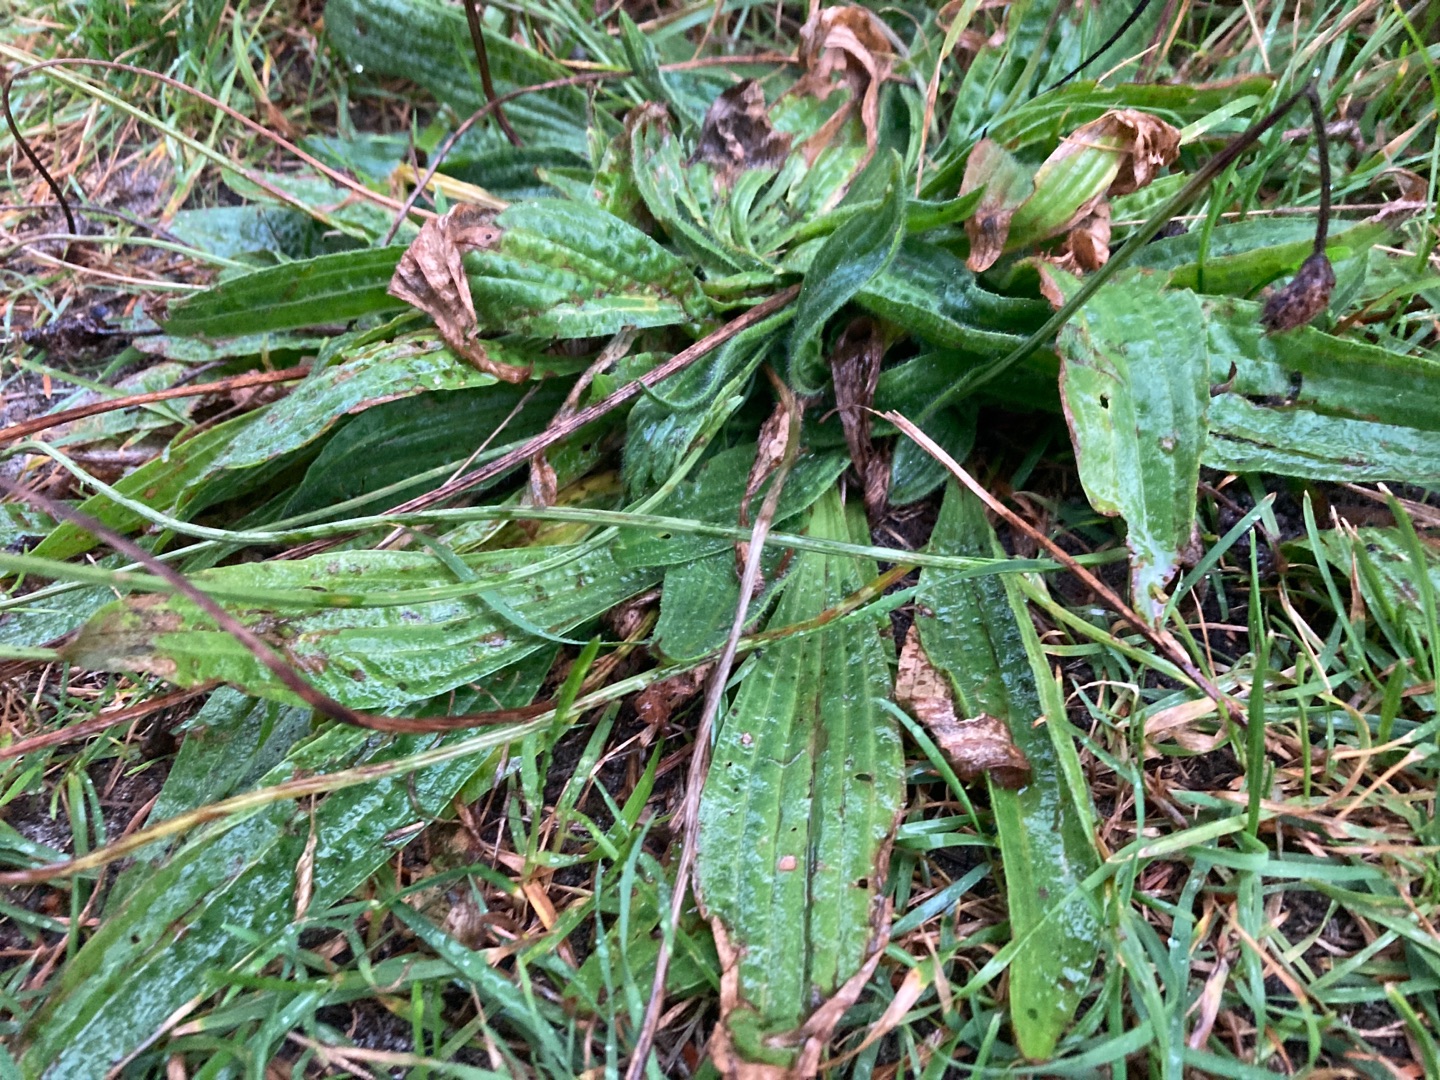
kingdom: Plantae
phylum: Tracheophyta
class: Magnoliopsida
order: Lamiales
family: Plantaginaceae
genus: Plantago
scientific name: Plantago lanceolata
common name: Lancet-vejbred
